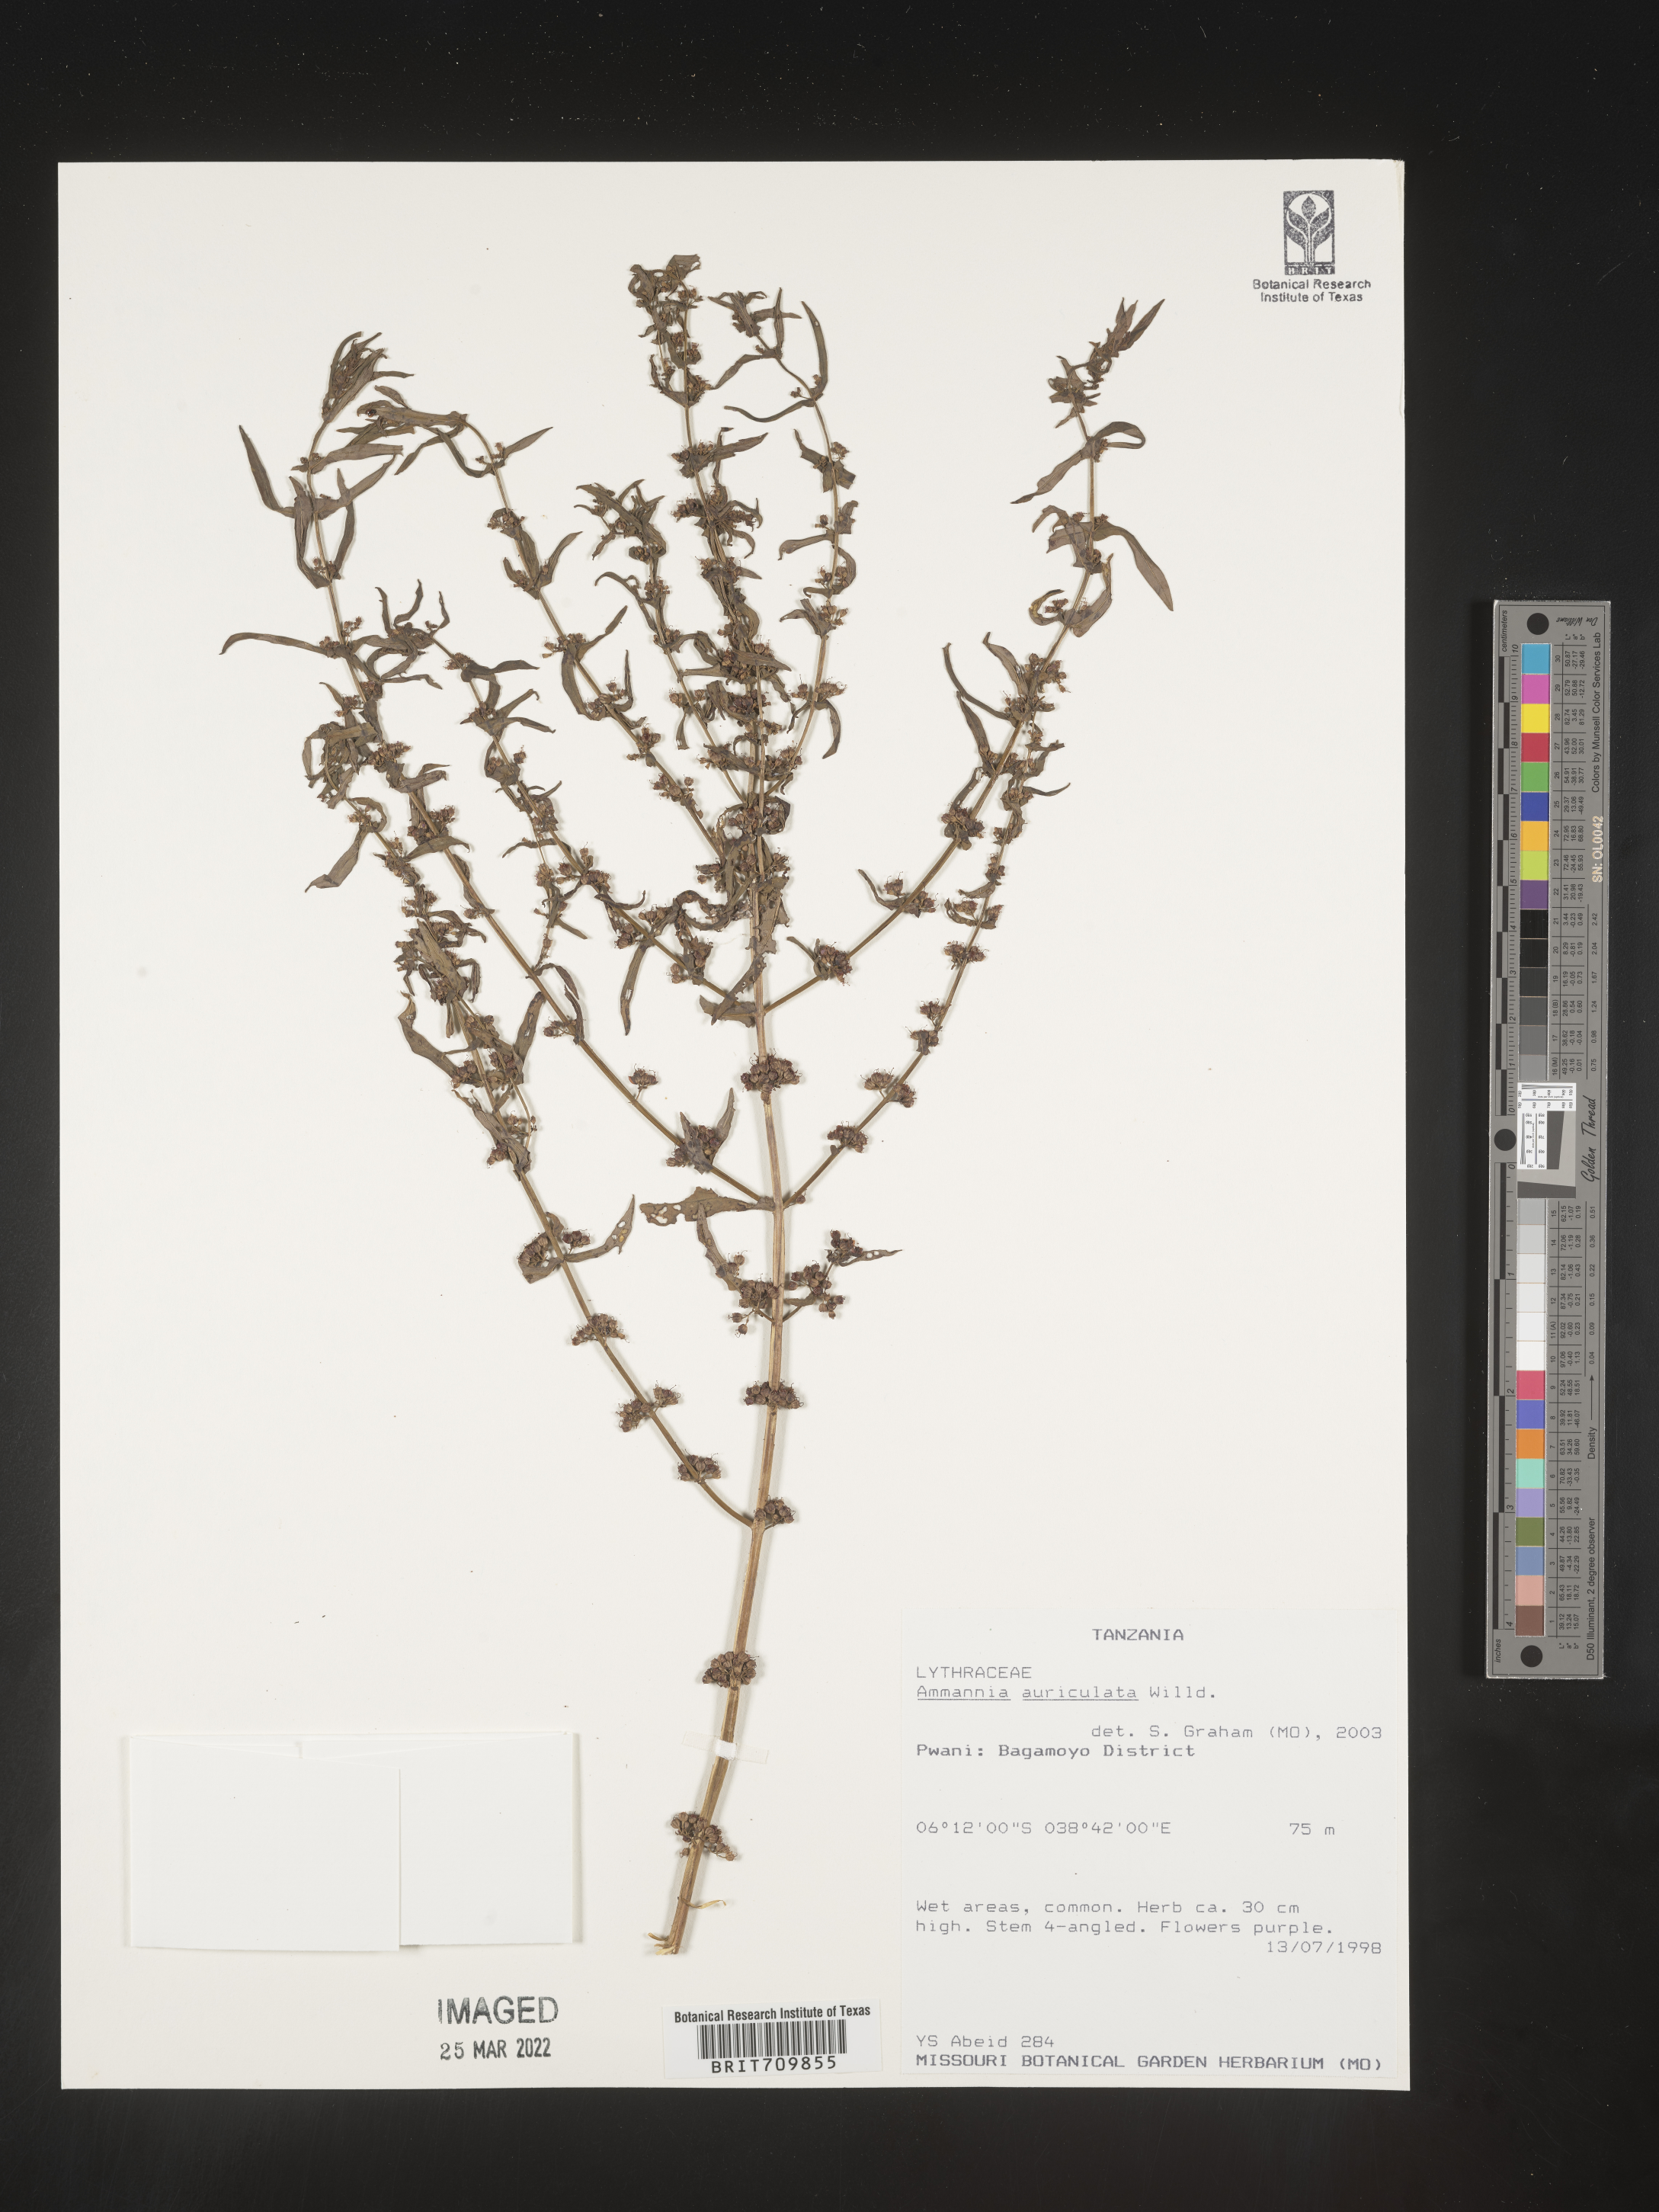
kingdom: Plantae
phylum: Tracheophyta
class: Magnoliopsida
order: Myrtales
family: Lythraceae
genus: Ammannia
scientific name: Ammannia
